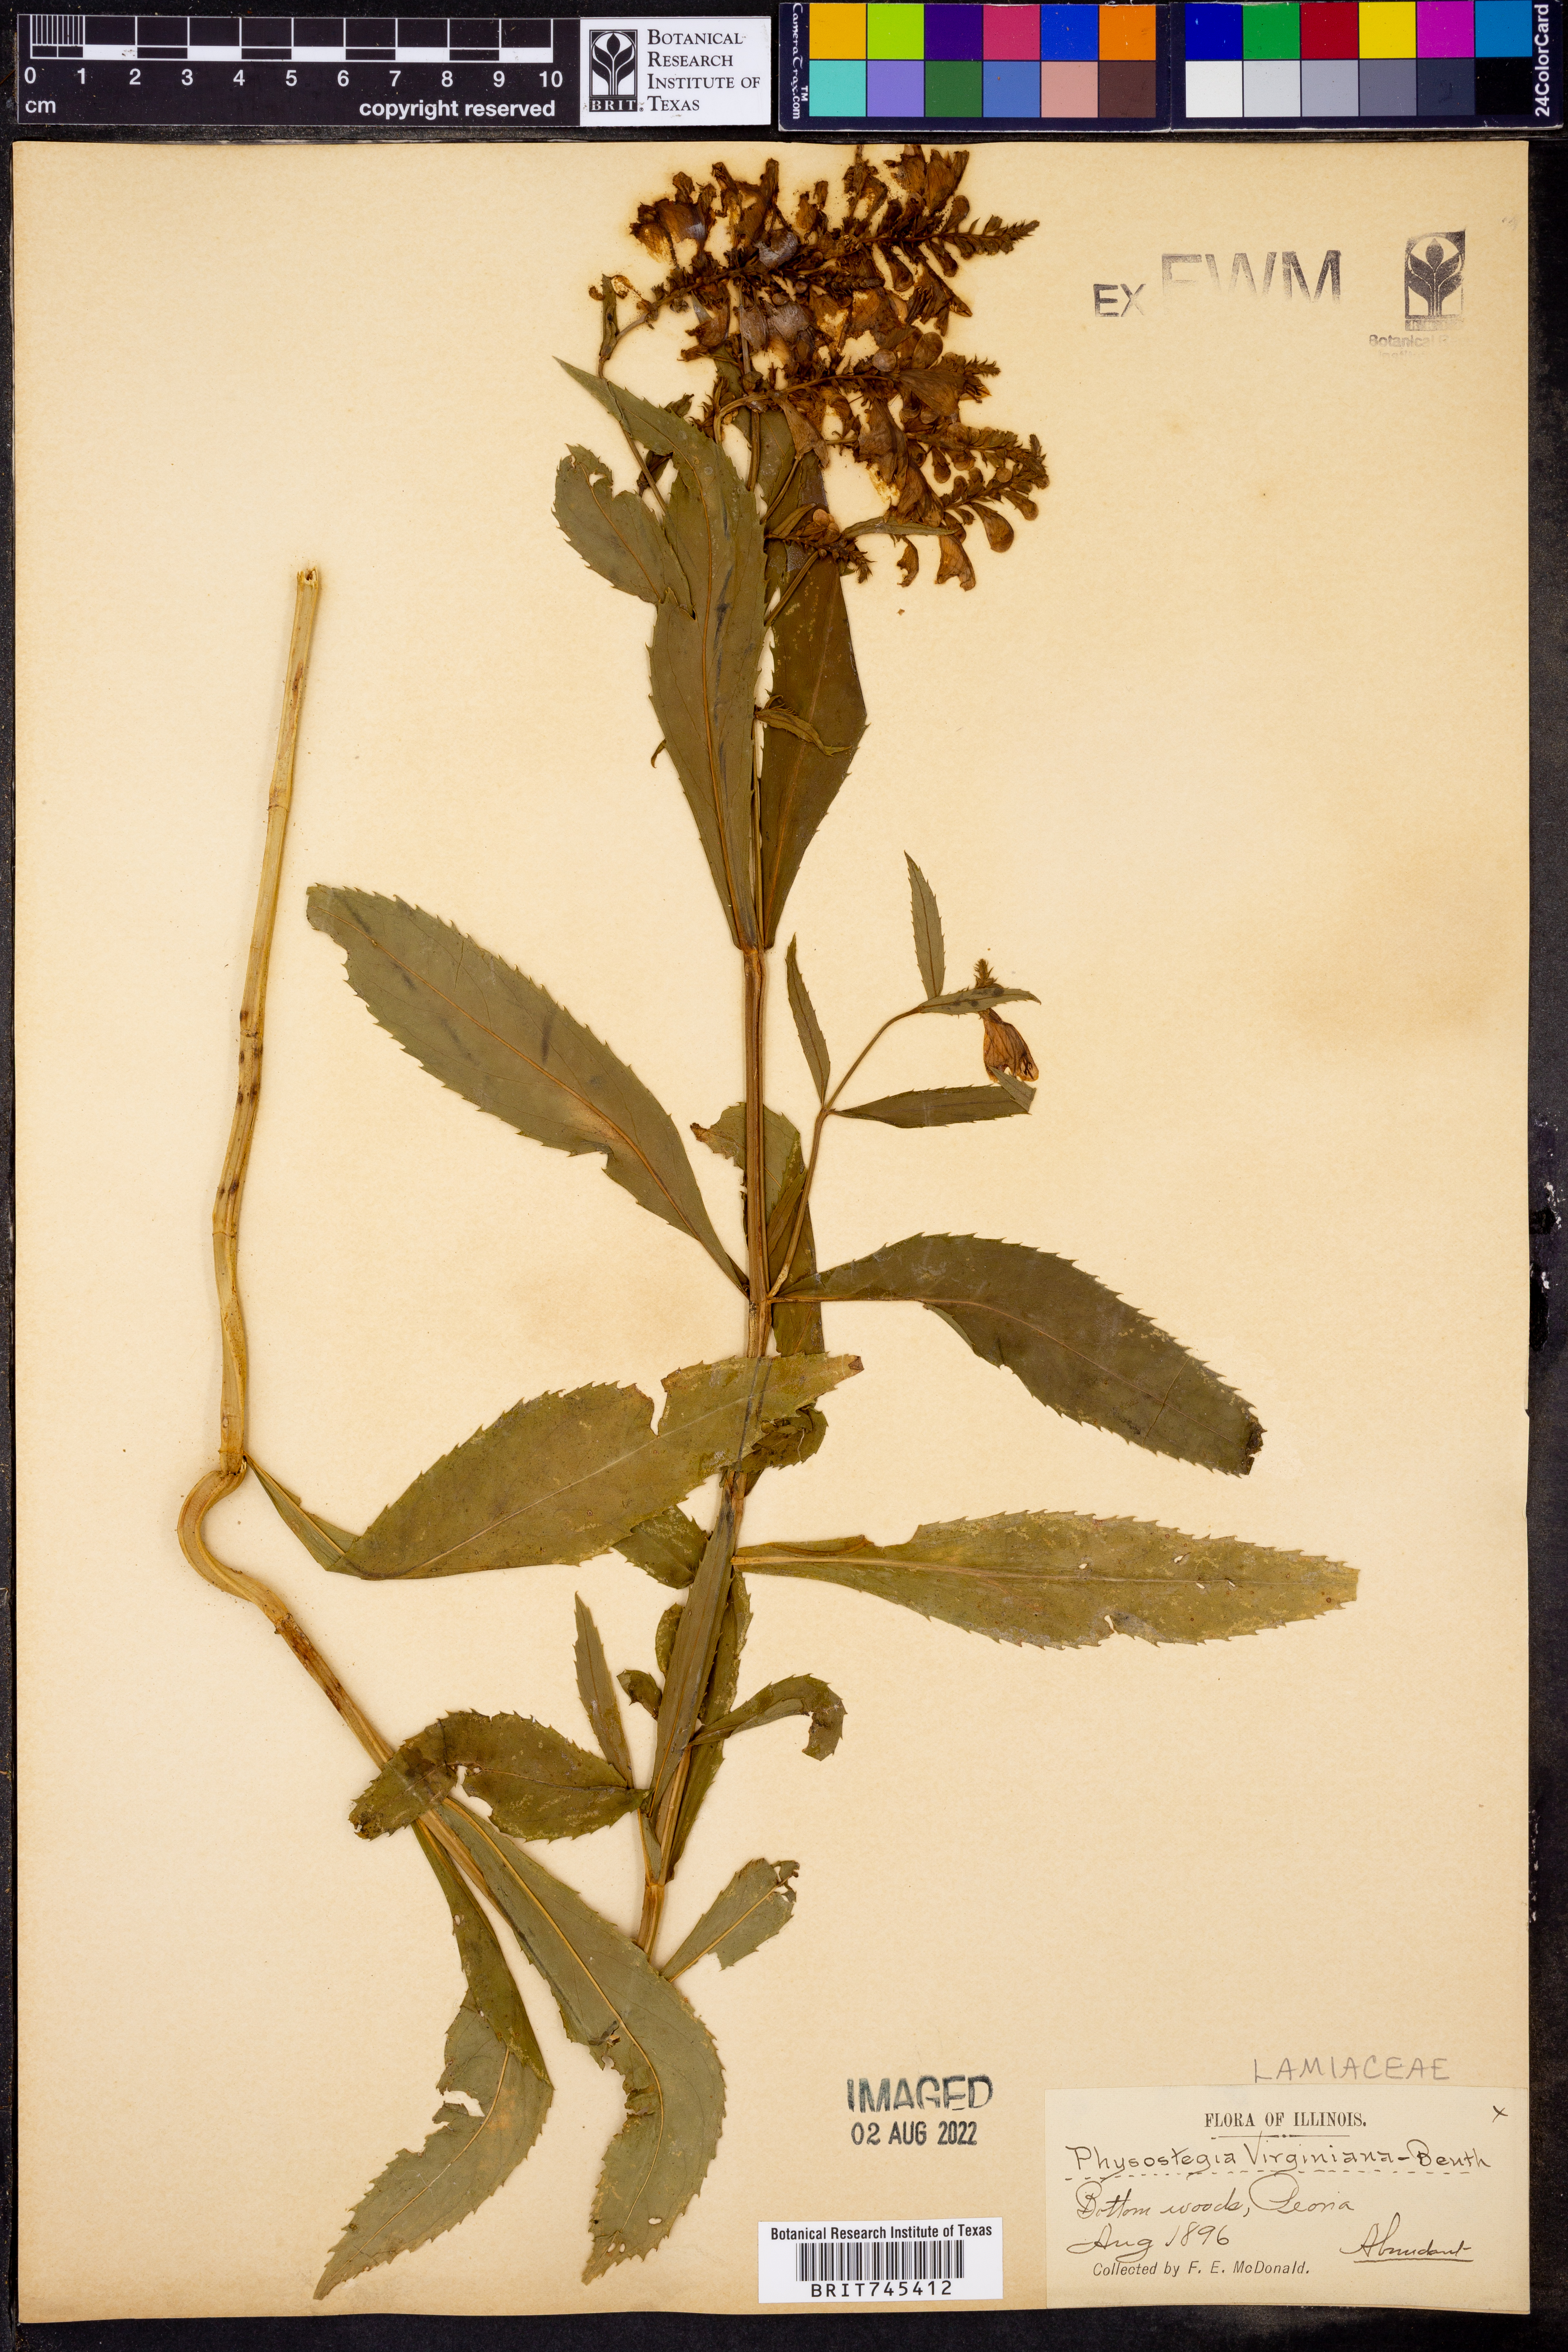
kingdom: Plantae
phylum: Tracheophyta
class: Magnoliopsida
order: Lamiales
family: Lamiaceae
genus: Physostegia
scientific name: Physostegia virginiana
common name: Obedient-plant
